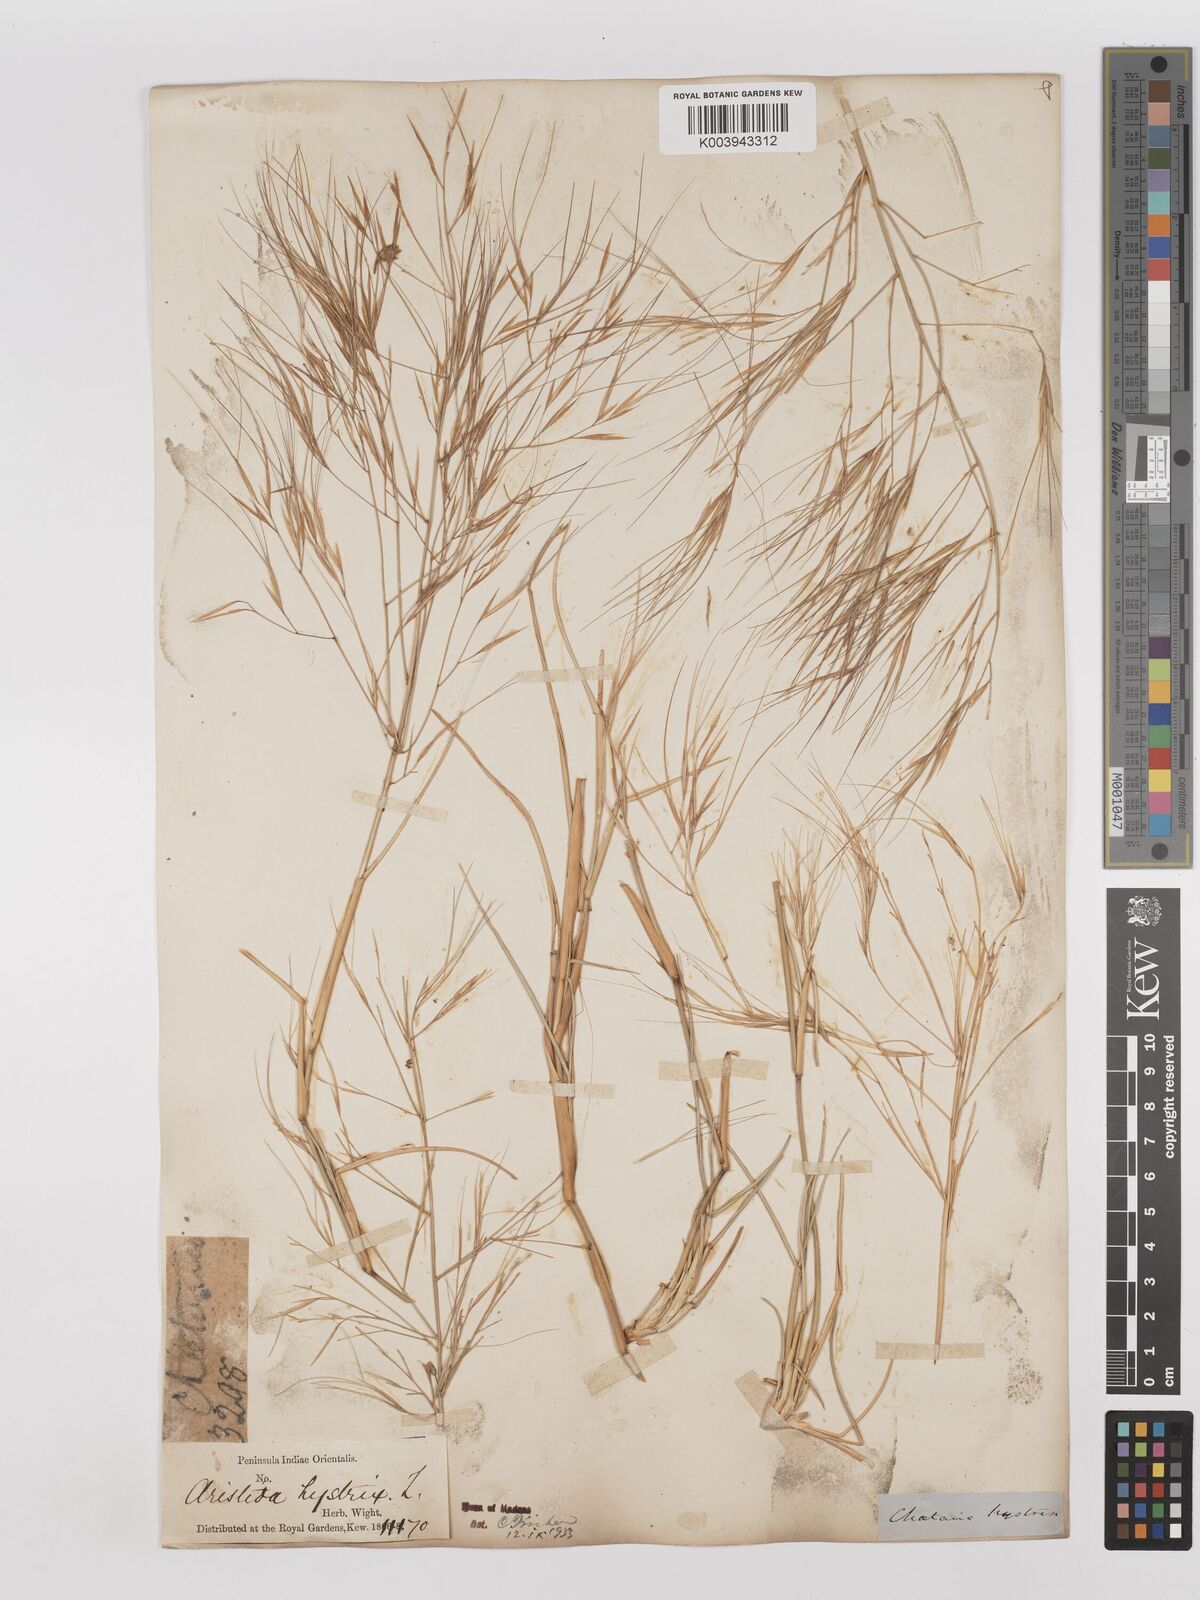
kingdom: Plantae
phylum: Tracheophyta
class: Liliopsida
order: Poales
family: Poaceae
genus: Aristida
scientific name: Aristida hystrix
